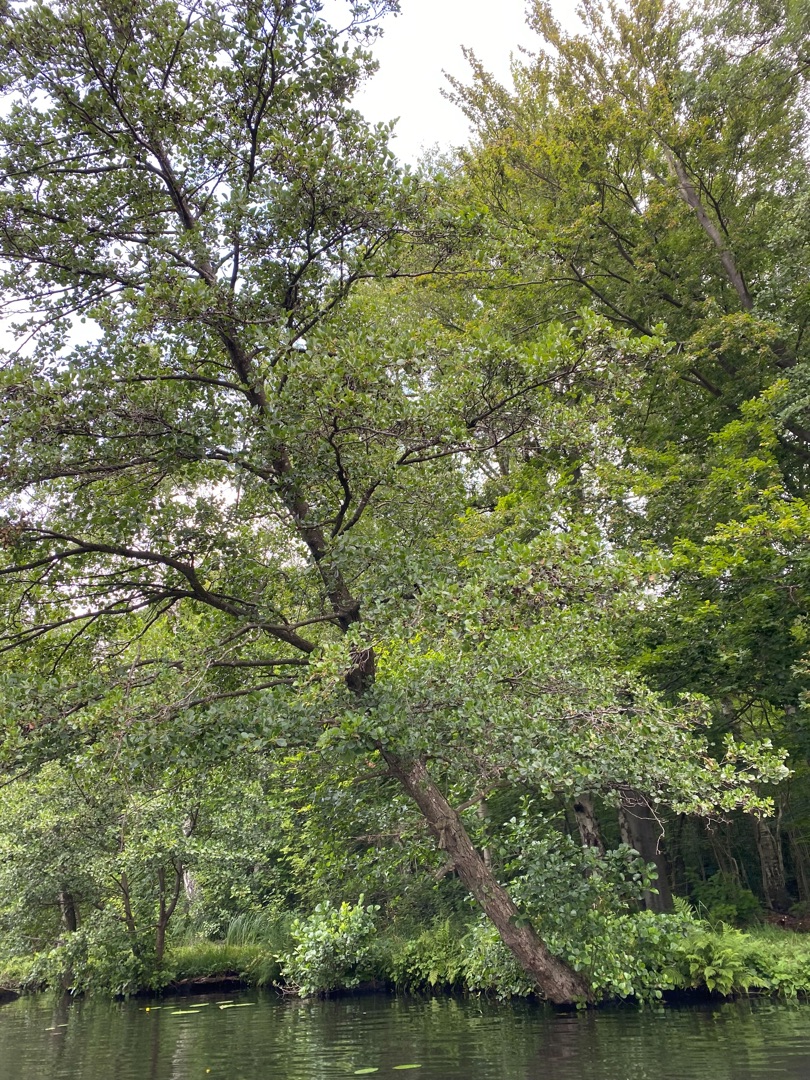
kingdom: Plantae
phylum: Tracheophyta
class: Magnoliopsida
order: Fagales
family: Betulaceae
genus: Alnus
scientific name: Alnus glutinosa
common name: Rød-el
